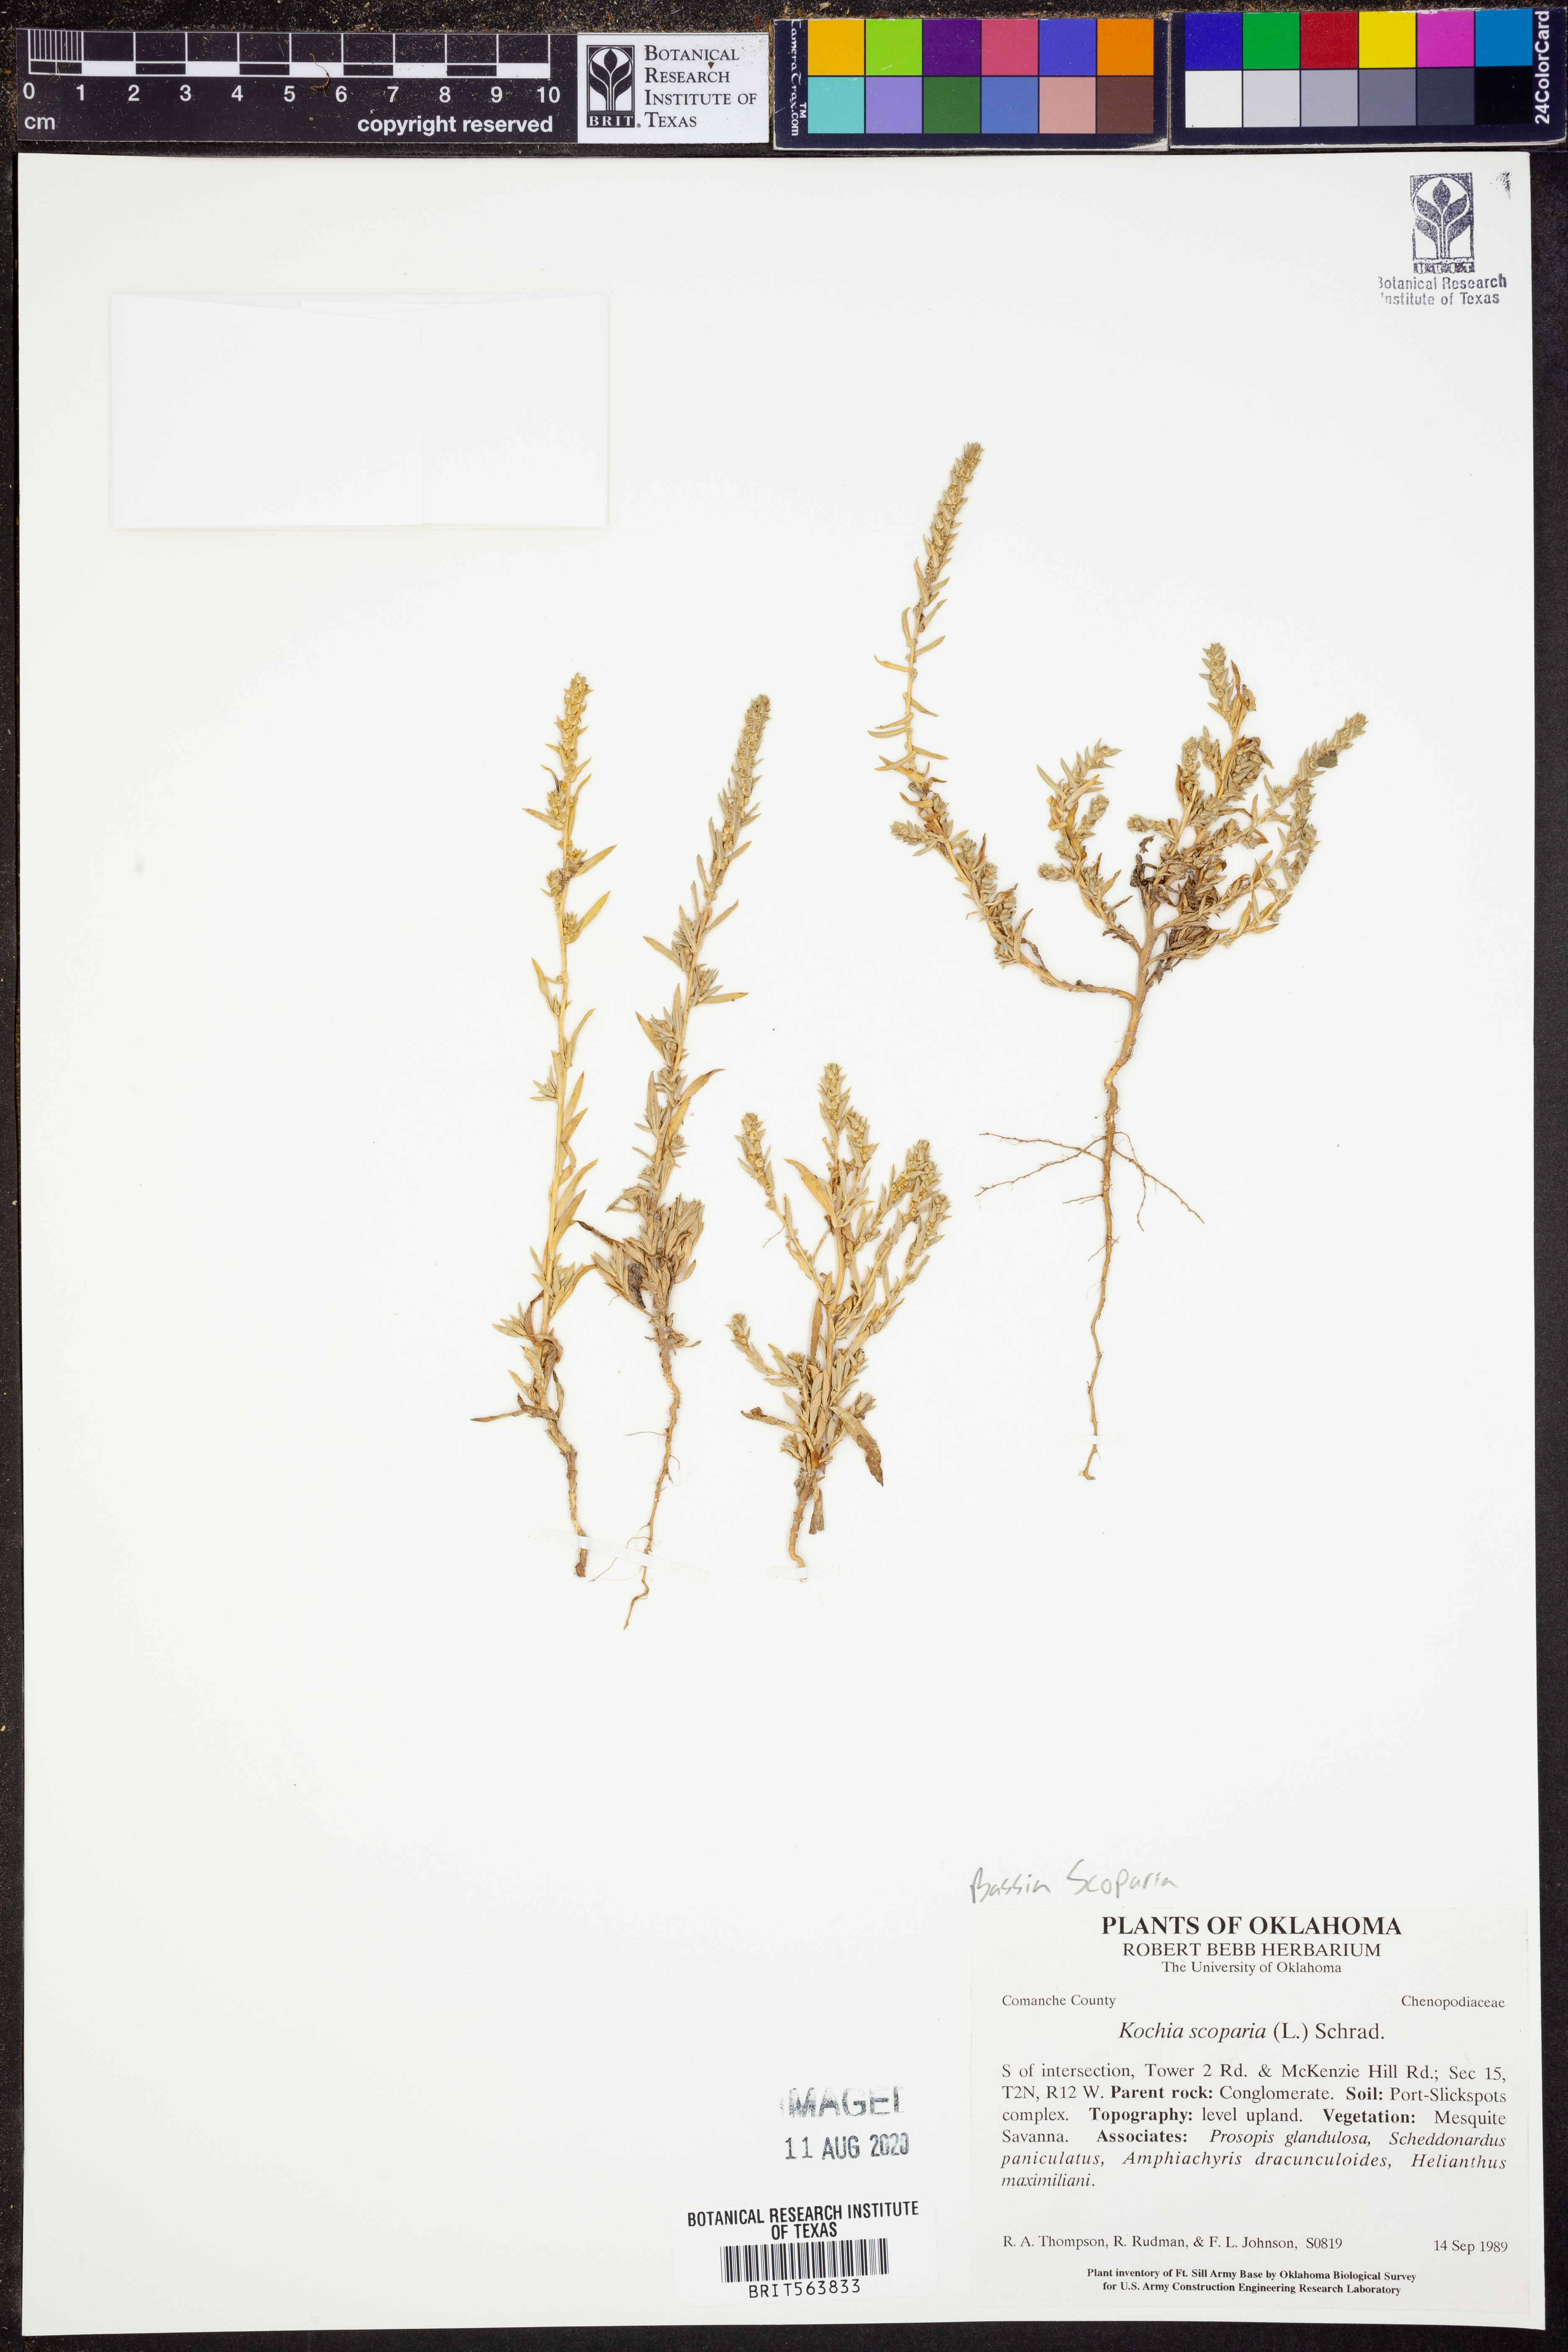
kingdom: Plantae
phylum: Tracheophyta
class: Magnoliopsida
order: Caryophyllales
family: Amaranthaceae
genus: Bassia
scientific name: Bassia scoparia
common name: Belvedere
